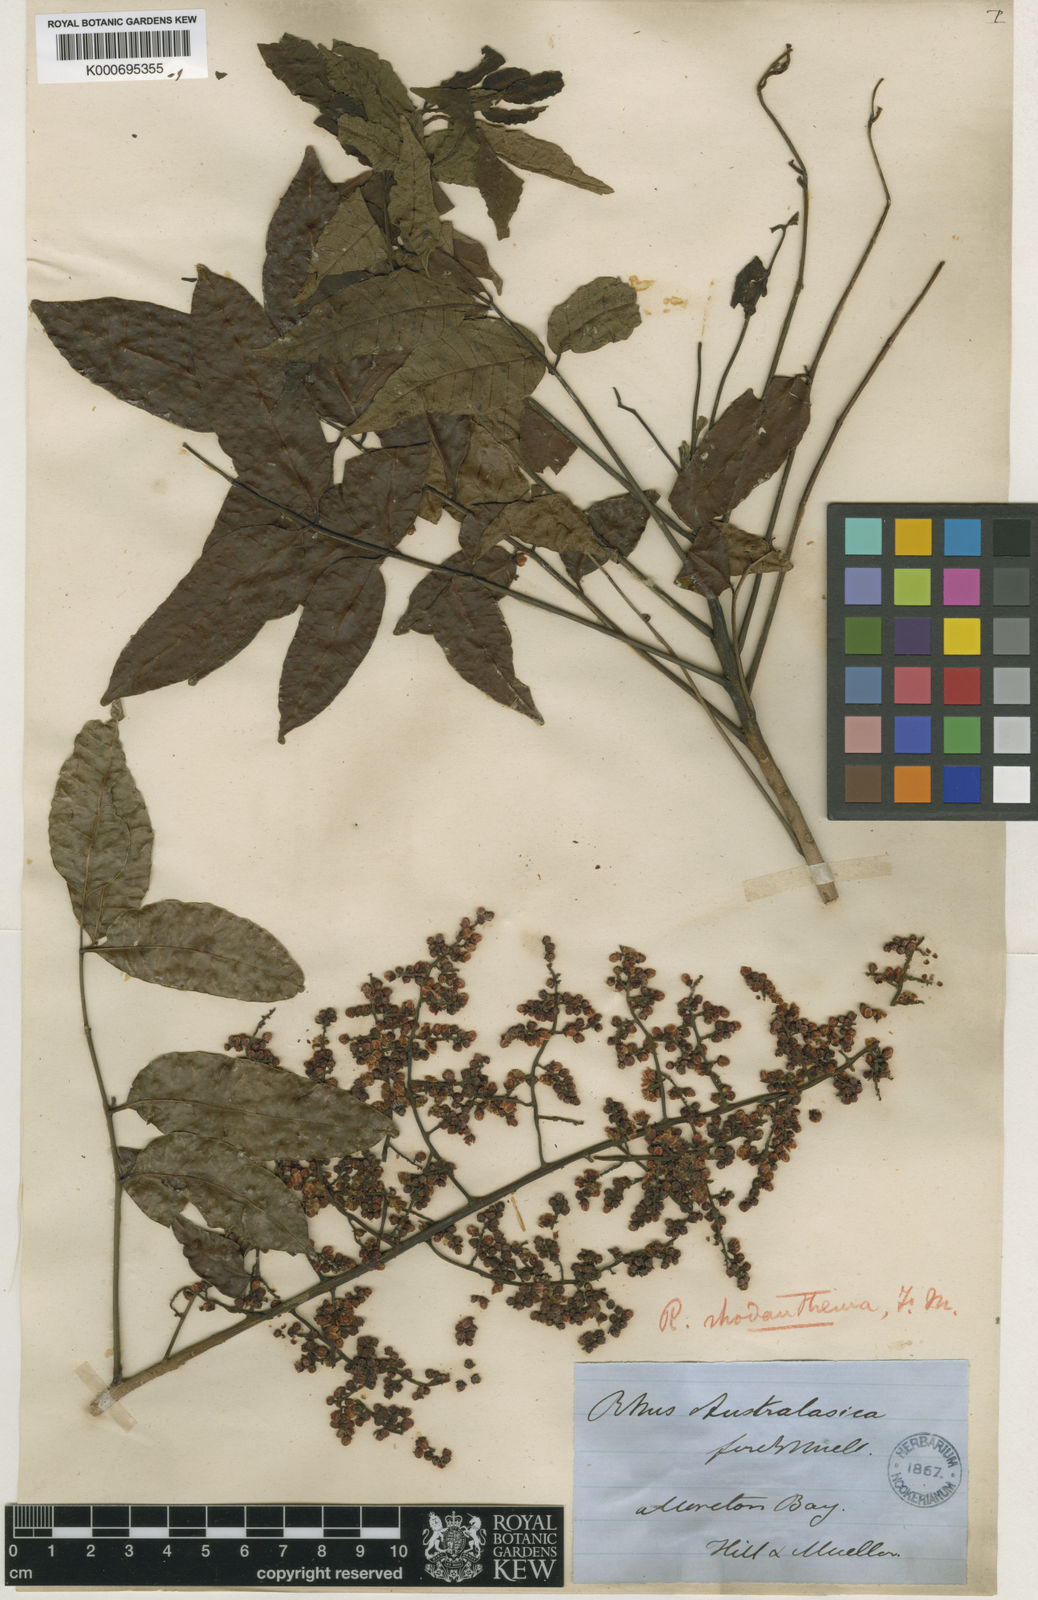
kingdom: Plantae
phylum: Tracheophyta
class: Magnoliopsida
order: Sapindales
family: Anacardiaceae
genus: Rhodosphaera
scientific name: Rhodosphaera rhodanthema
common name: Tulip satinwood
